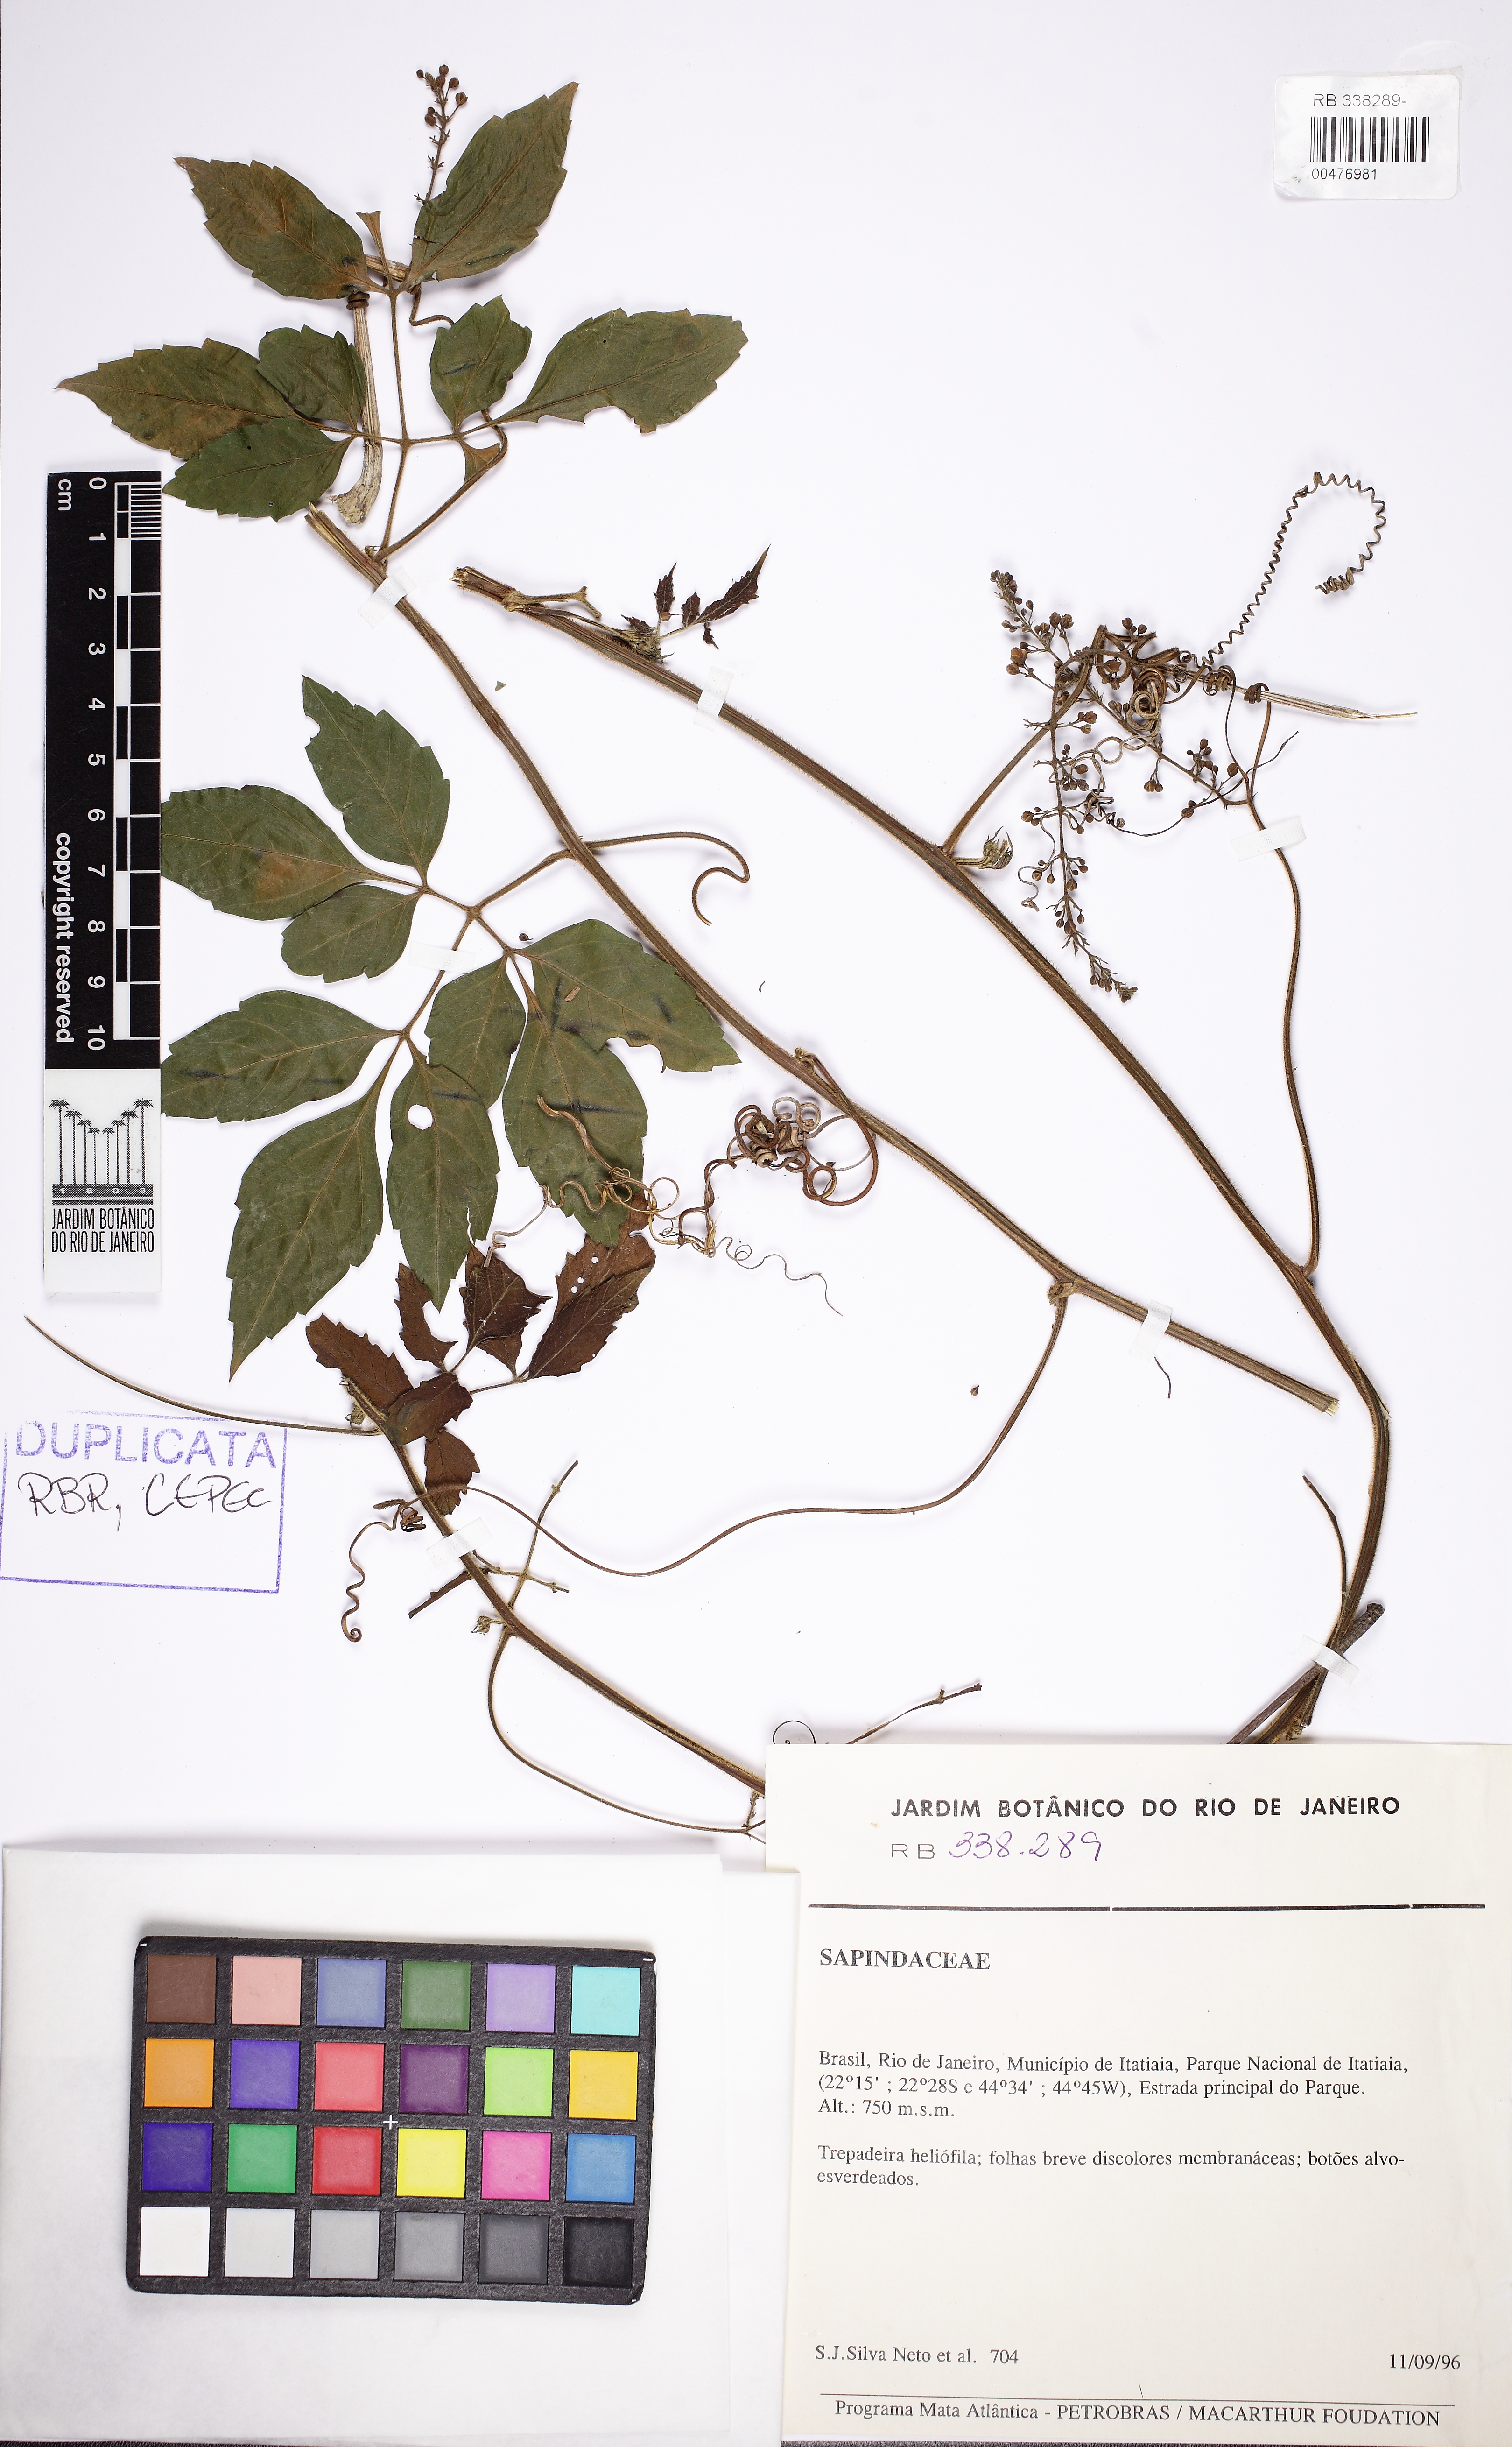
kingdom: Plantae
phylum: Tracheophyta
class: Magnoliopsida
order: Sapindales
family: Sapindaceae
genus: Serjania
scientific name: Serjania communis
